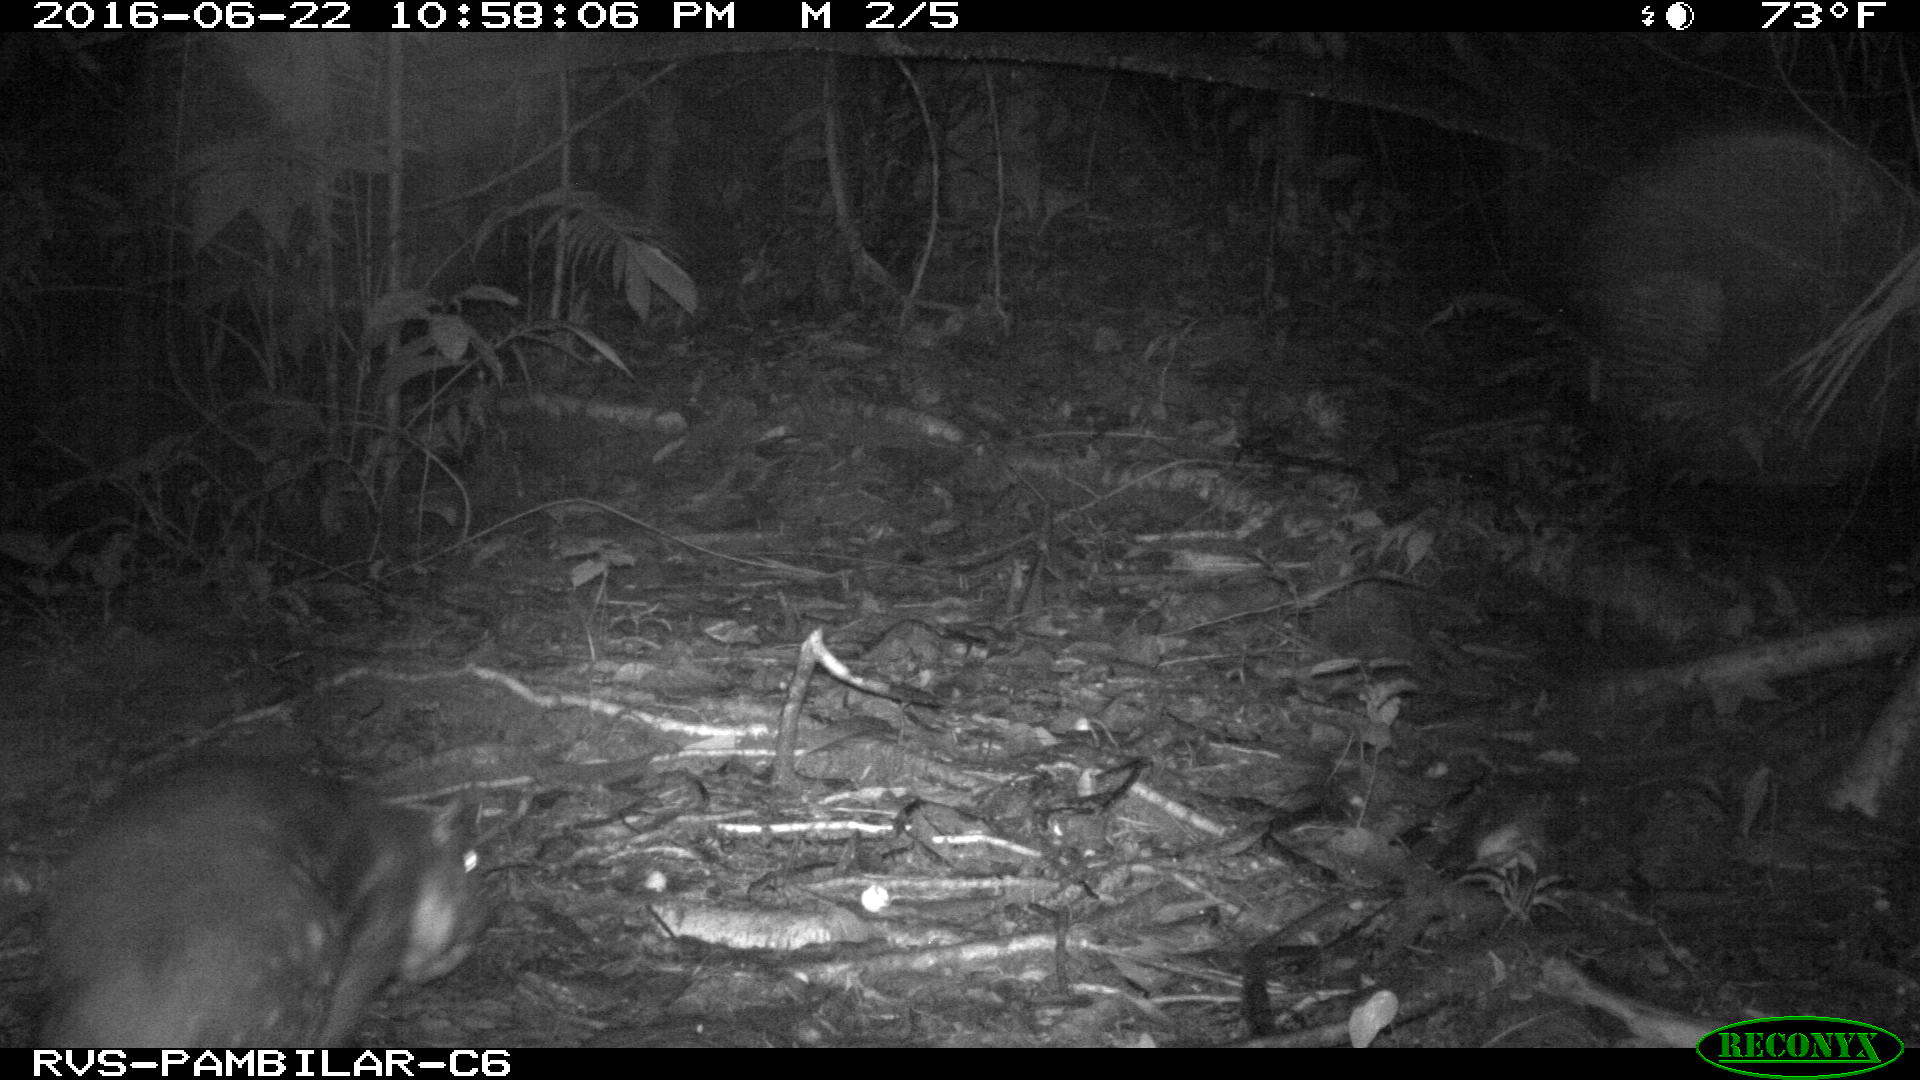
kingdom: Animalia
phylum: Chordata
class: Mammalia
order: Rodentia
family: Dasyproctidae
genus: Dasyprocta
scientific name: Dasyprocta punctata
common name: Central american agouti
